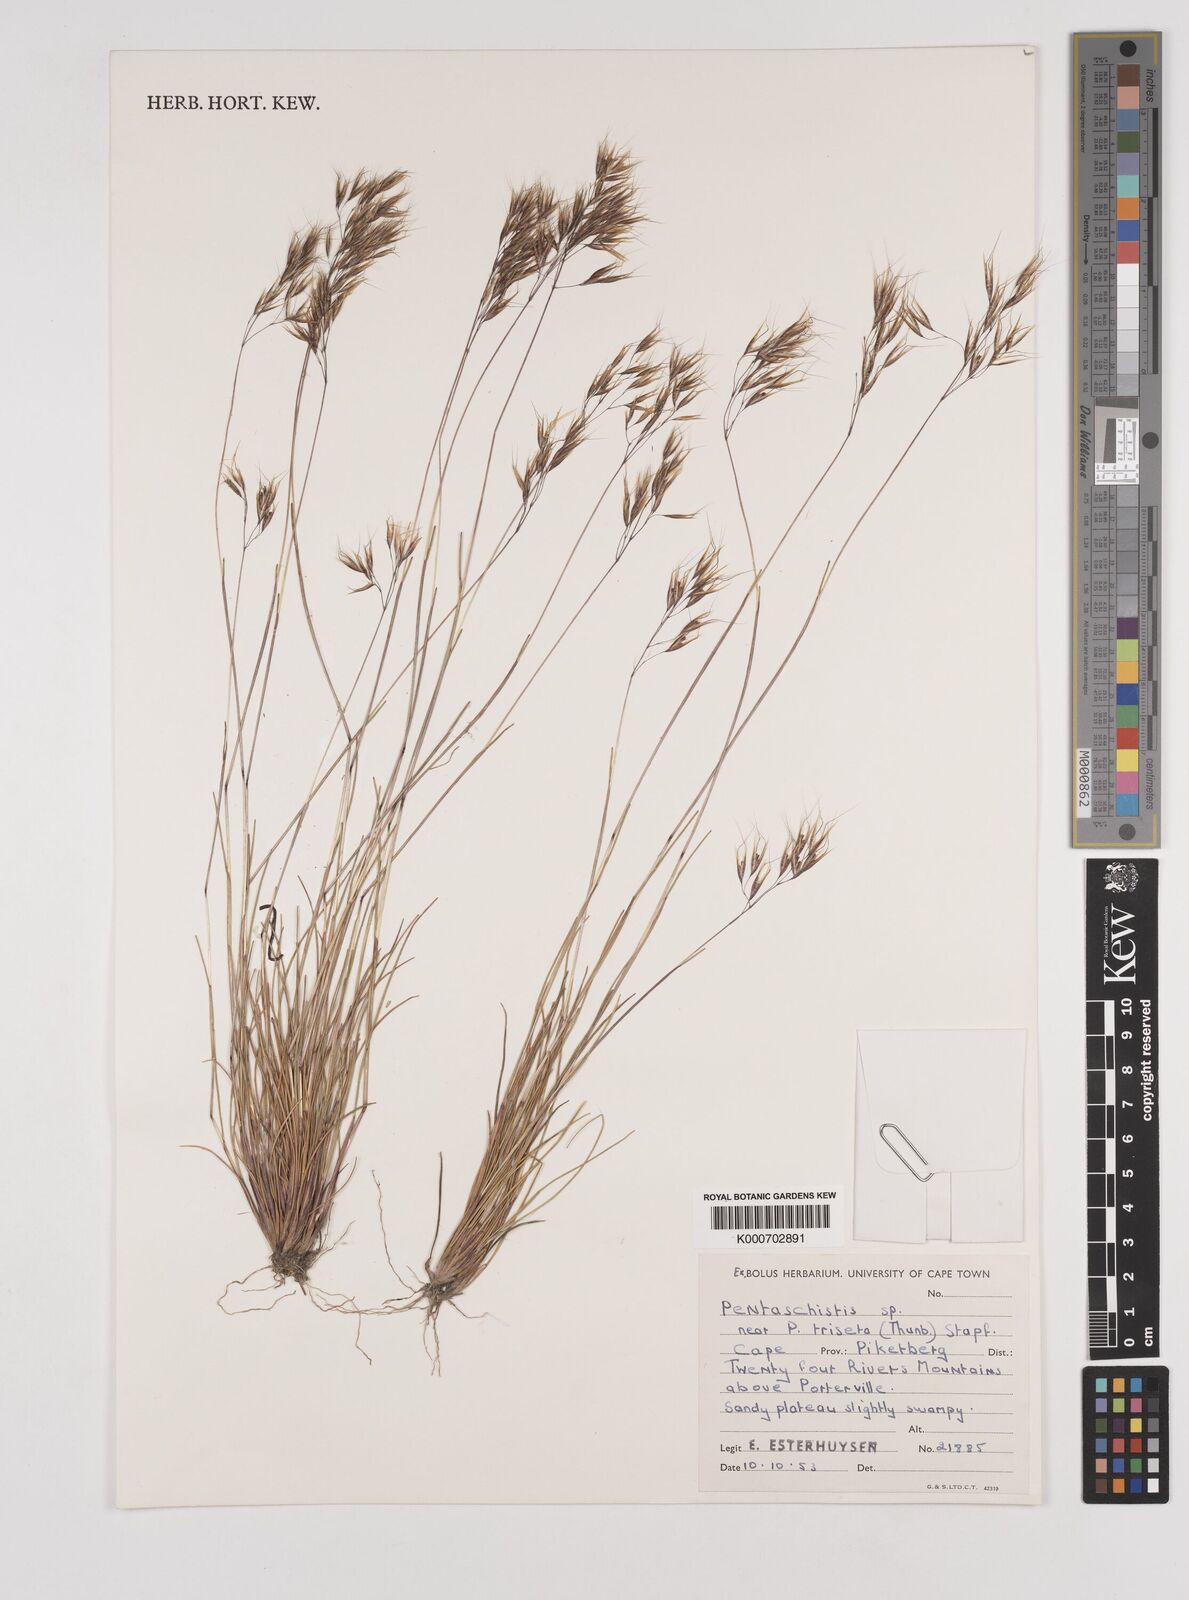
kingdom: Plantae
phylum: Tracheophyta
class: Liliopsida
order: Poales
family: Poaceae
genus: Pentameris
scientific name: Pentameris barbata
